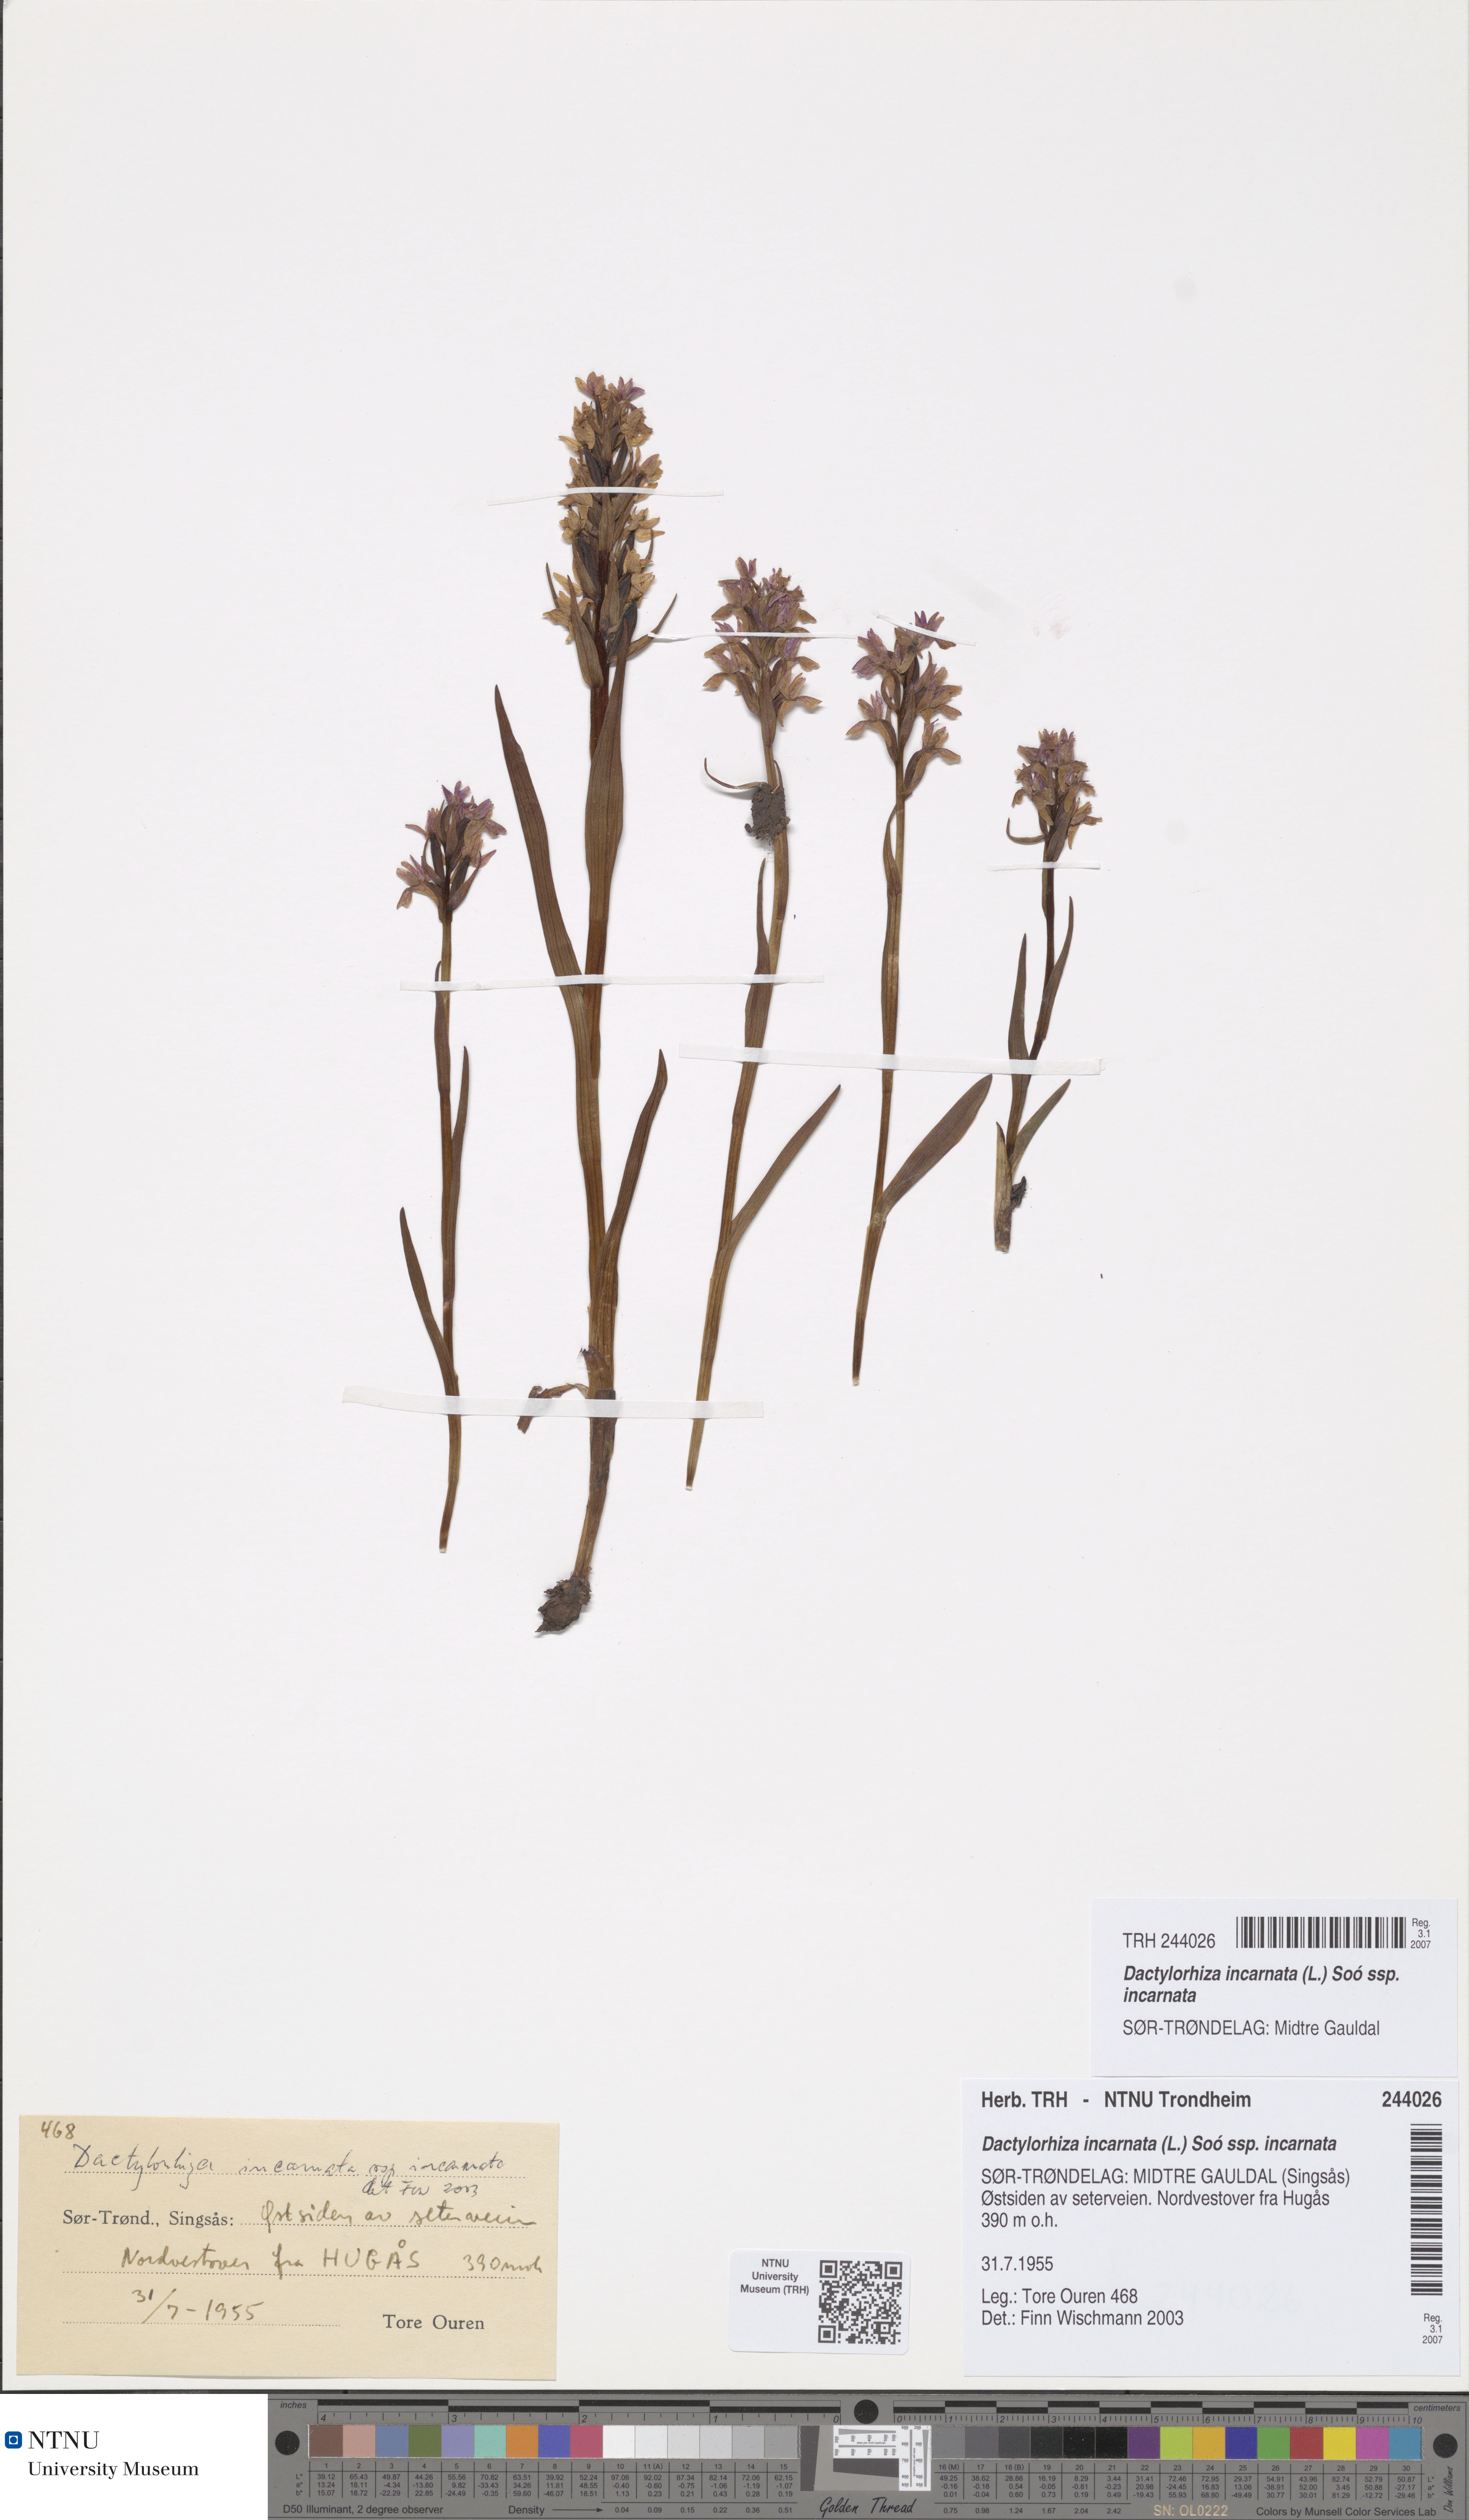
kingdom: Plantae
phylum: Tracheophyta
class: Liliopsida
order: Asparagales
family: Orchidaceae
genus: Dactylorhiza
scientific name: Dactylorhiza incarnata
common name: Early marsh-orchid
